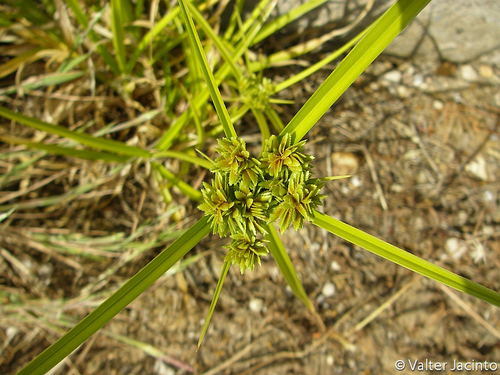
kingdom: Plantae
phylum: Tracheophyta
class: Liliopsida
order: Poales
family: Cyperaceae
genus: Cyperus
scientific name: Cyperus eragrostis
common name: Tall flatsedge
